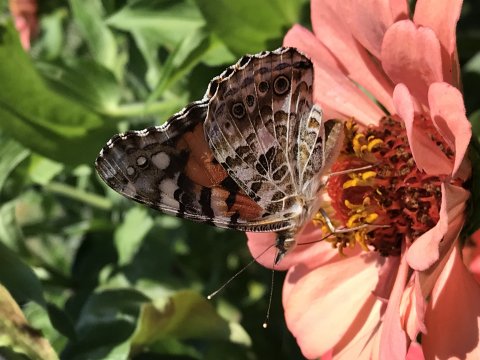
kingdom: Animalia
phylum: Arthropoda
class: Insecta
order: Lepidoptera
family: Nymphalidae
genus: Vanessa
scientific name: Vanessa cardui
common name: Painted Lady
